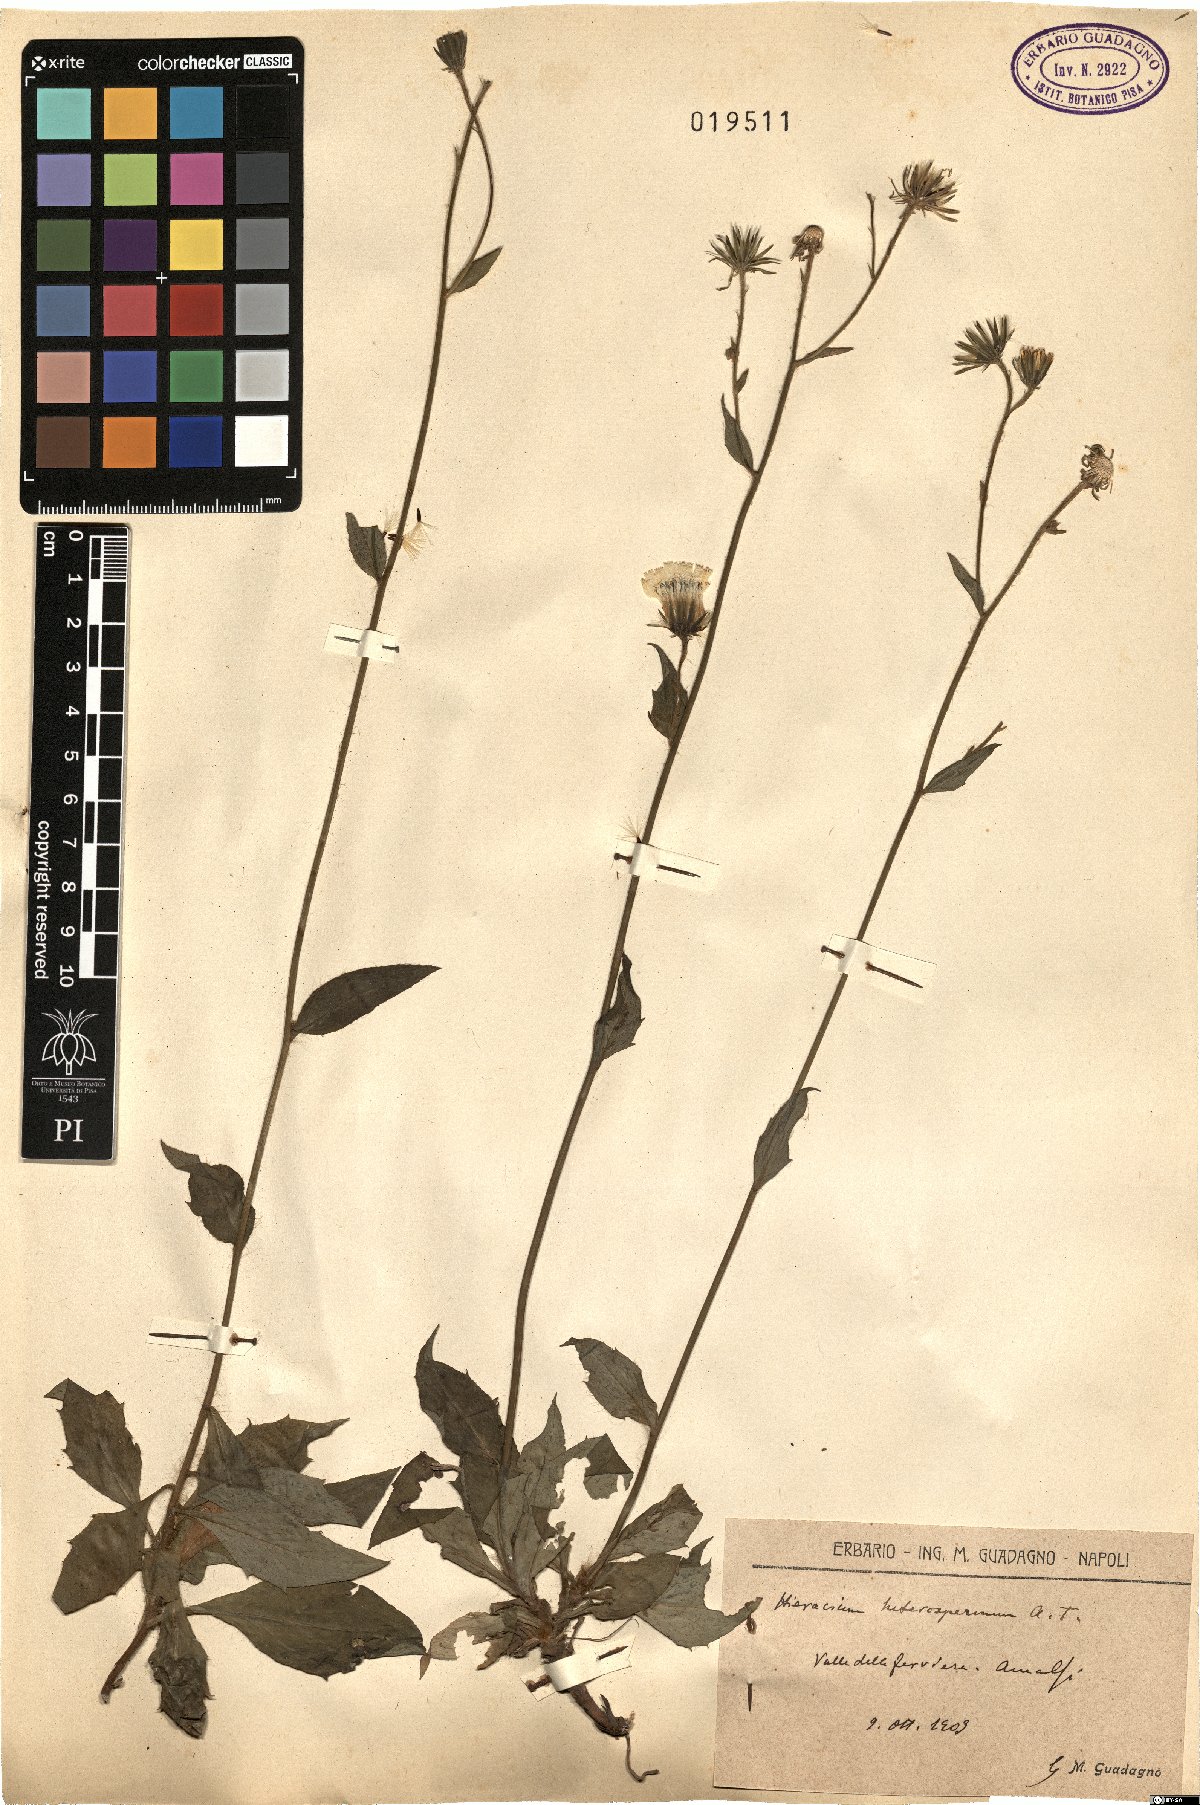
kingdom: Plantae
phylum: Tracheophyta
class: Magnoliopsida
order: Asterales
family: Asteraceae
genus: Hieracium
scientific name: Hieracium racemosum
